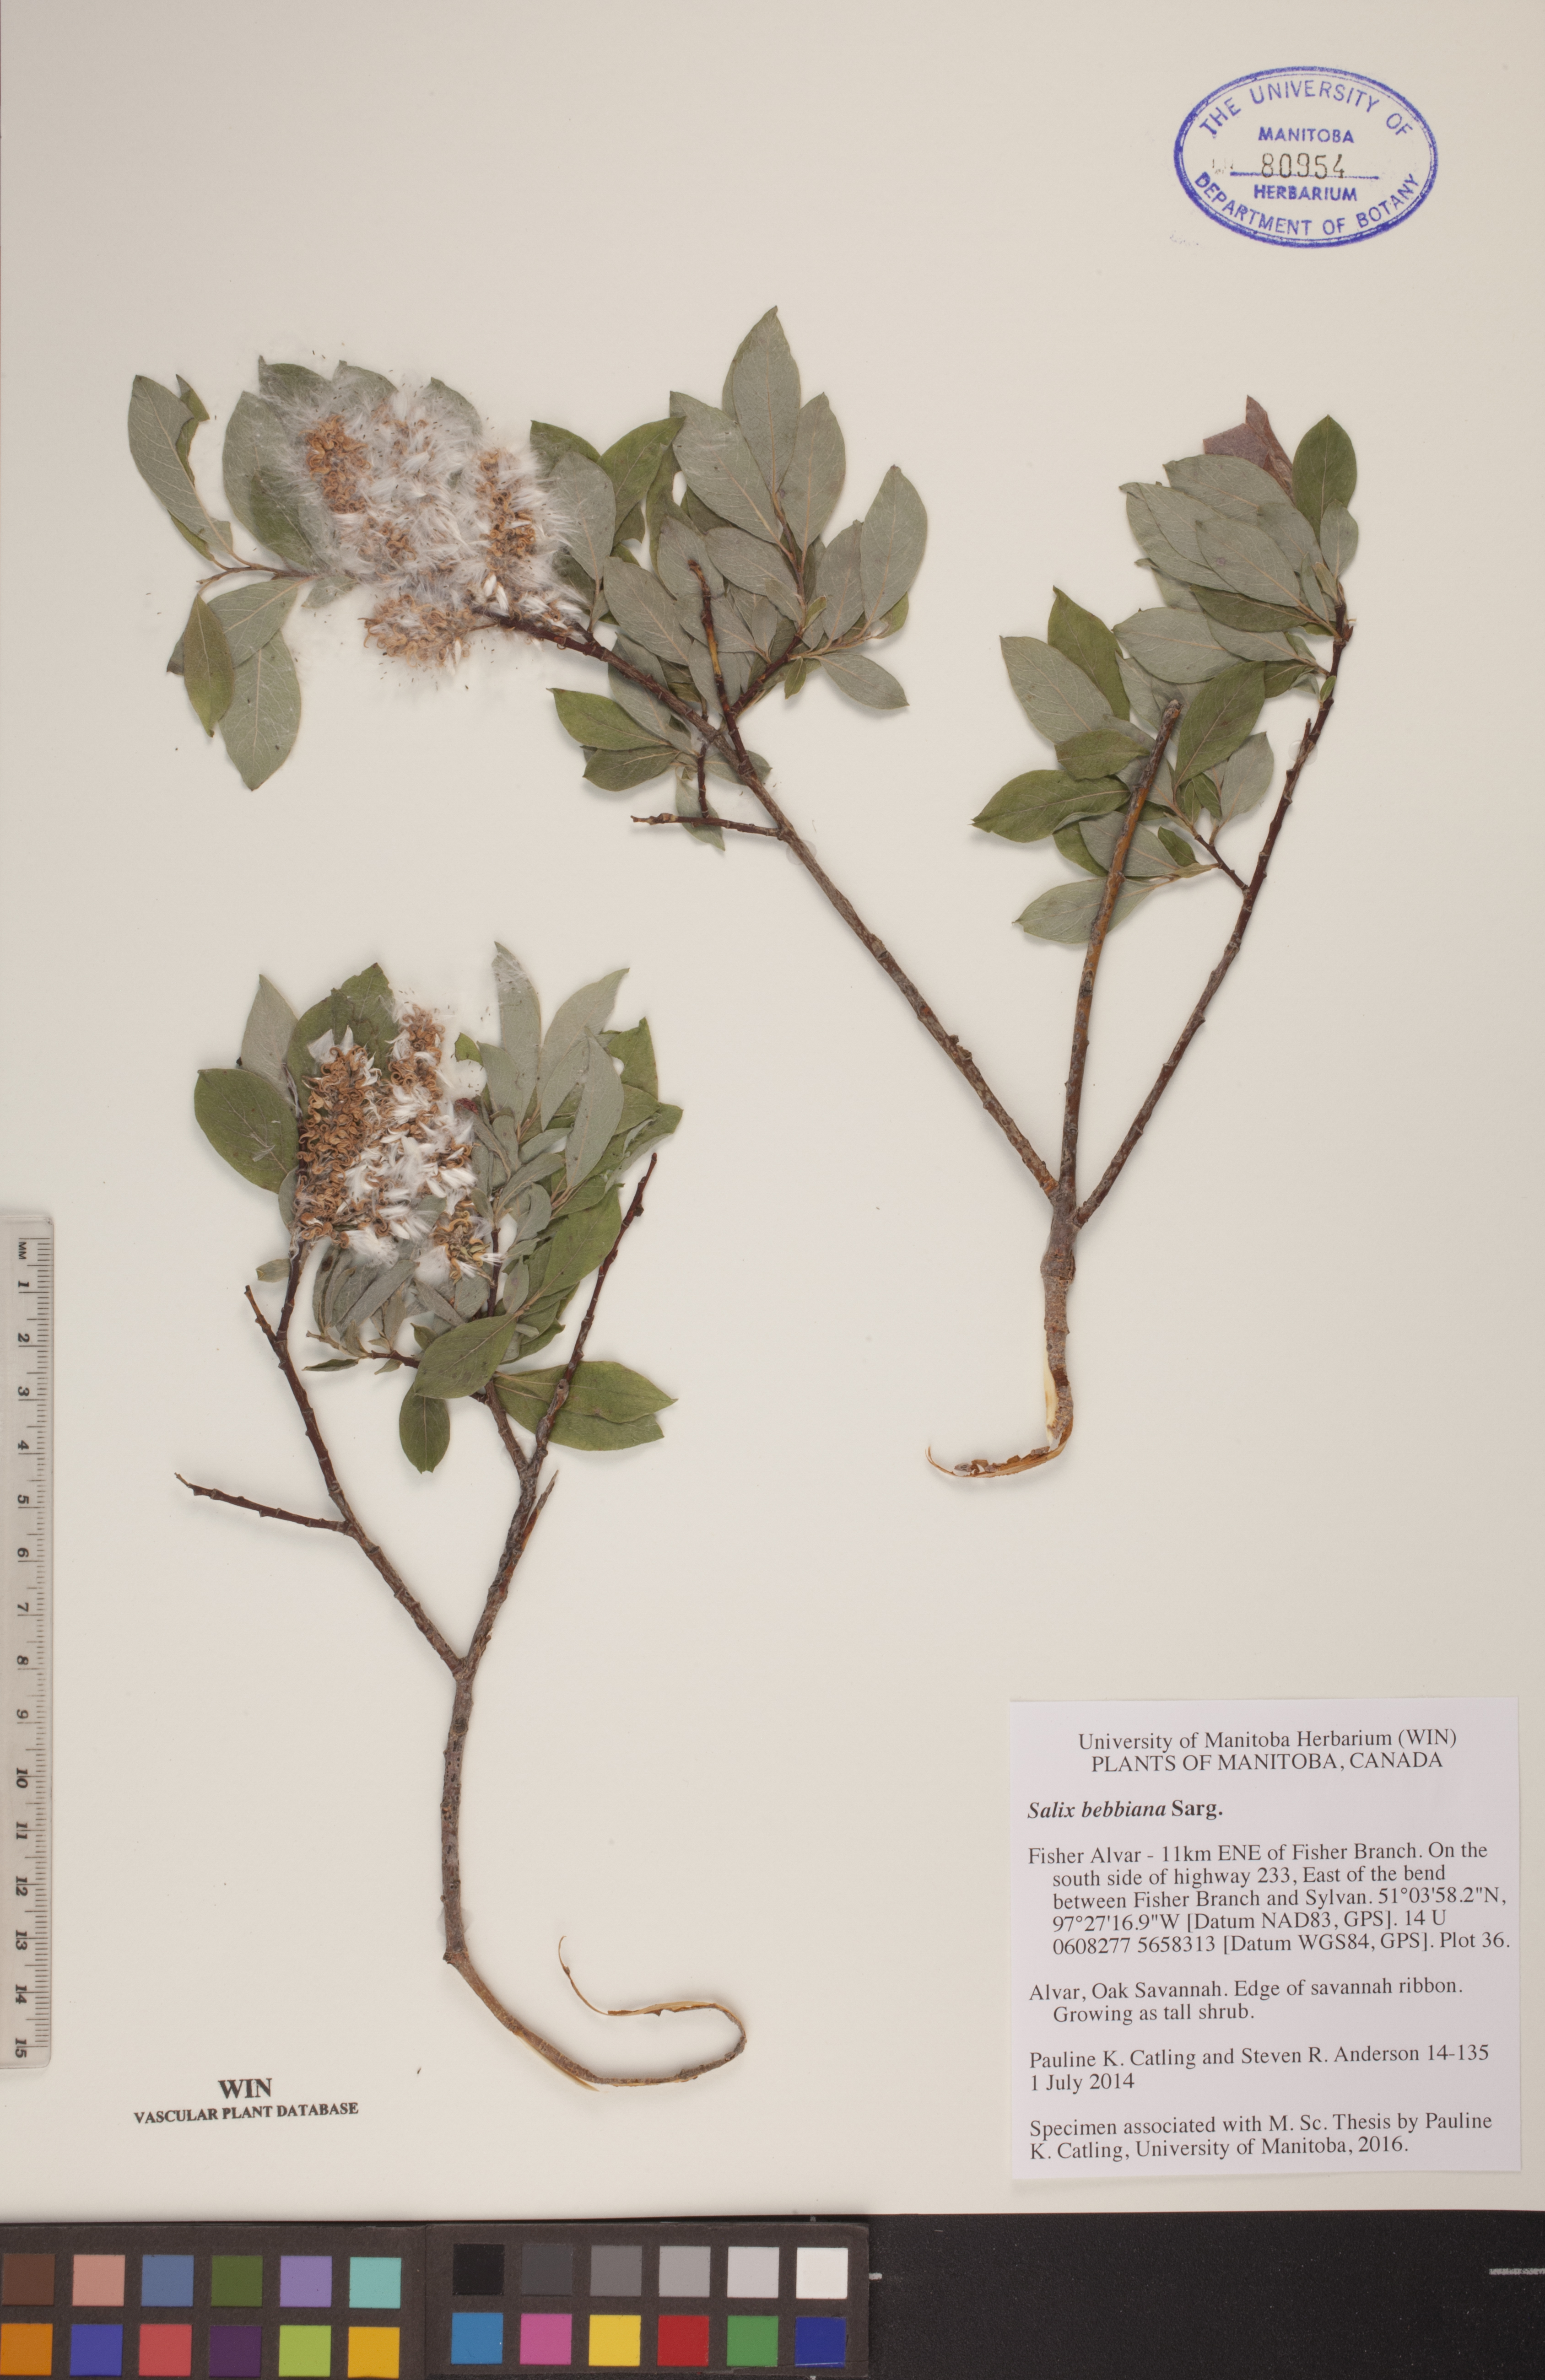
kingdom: Plantae
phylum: Tracheophyta
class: Magnoliopsida
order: Malpighiales
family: Salicaceae
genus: Salix
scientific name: Salix bebbiana
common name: Bebb's willow
